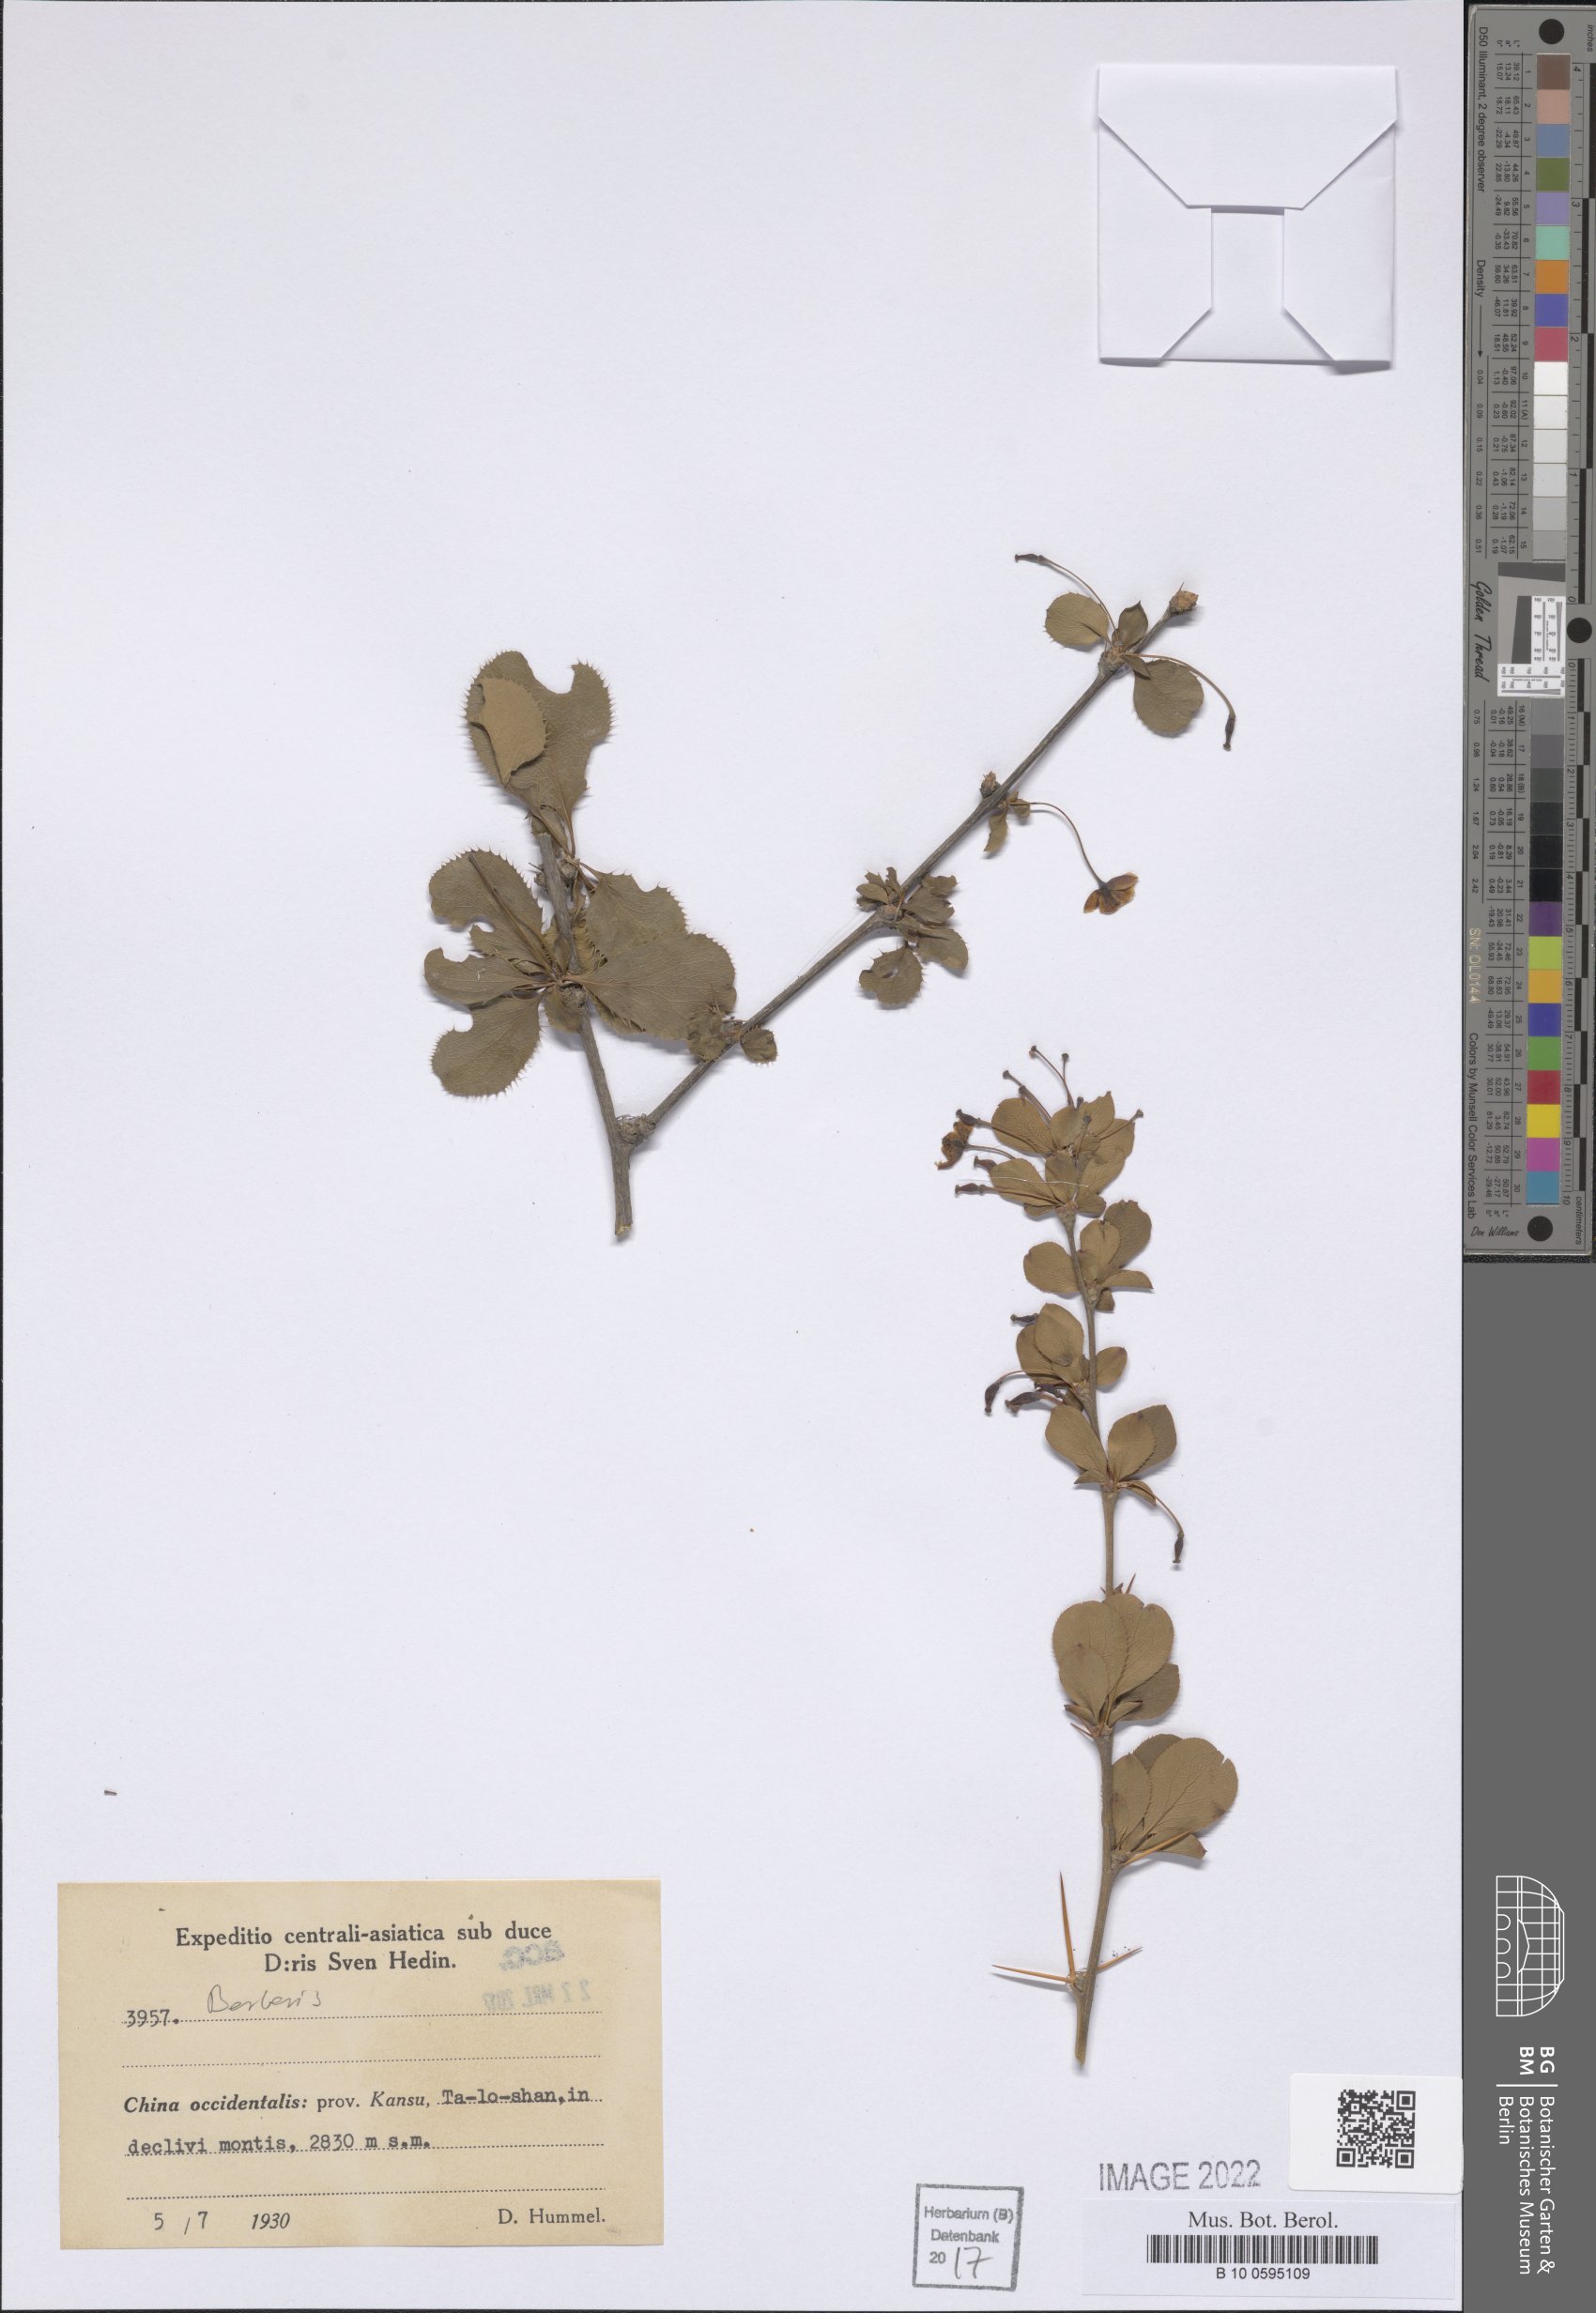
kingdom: Plantae
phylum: Tracheophyta
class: Magnoliopsida
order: Ranunculales
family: Berberidaceae
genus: Berberis
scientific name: Berberis
